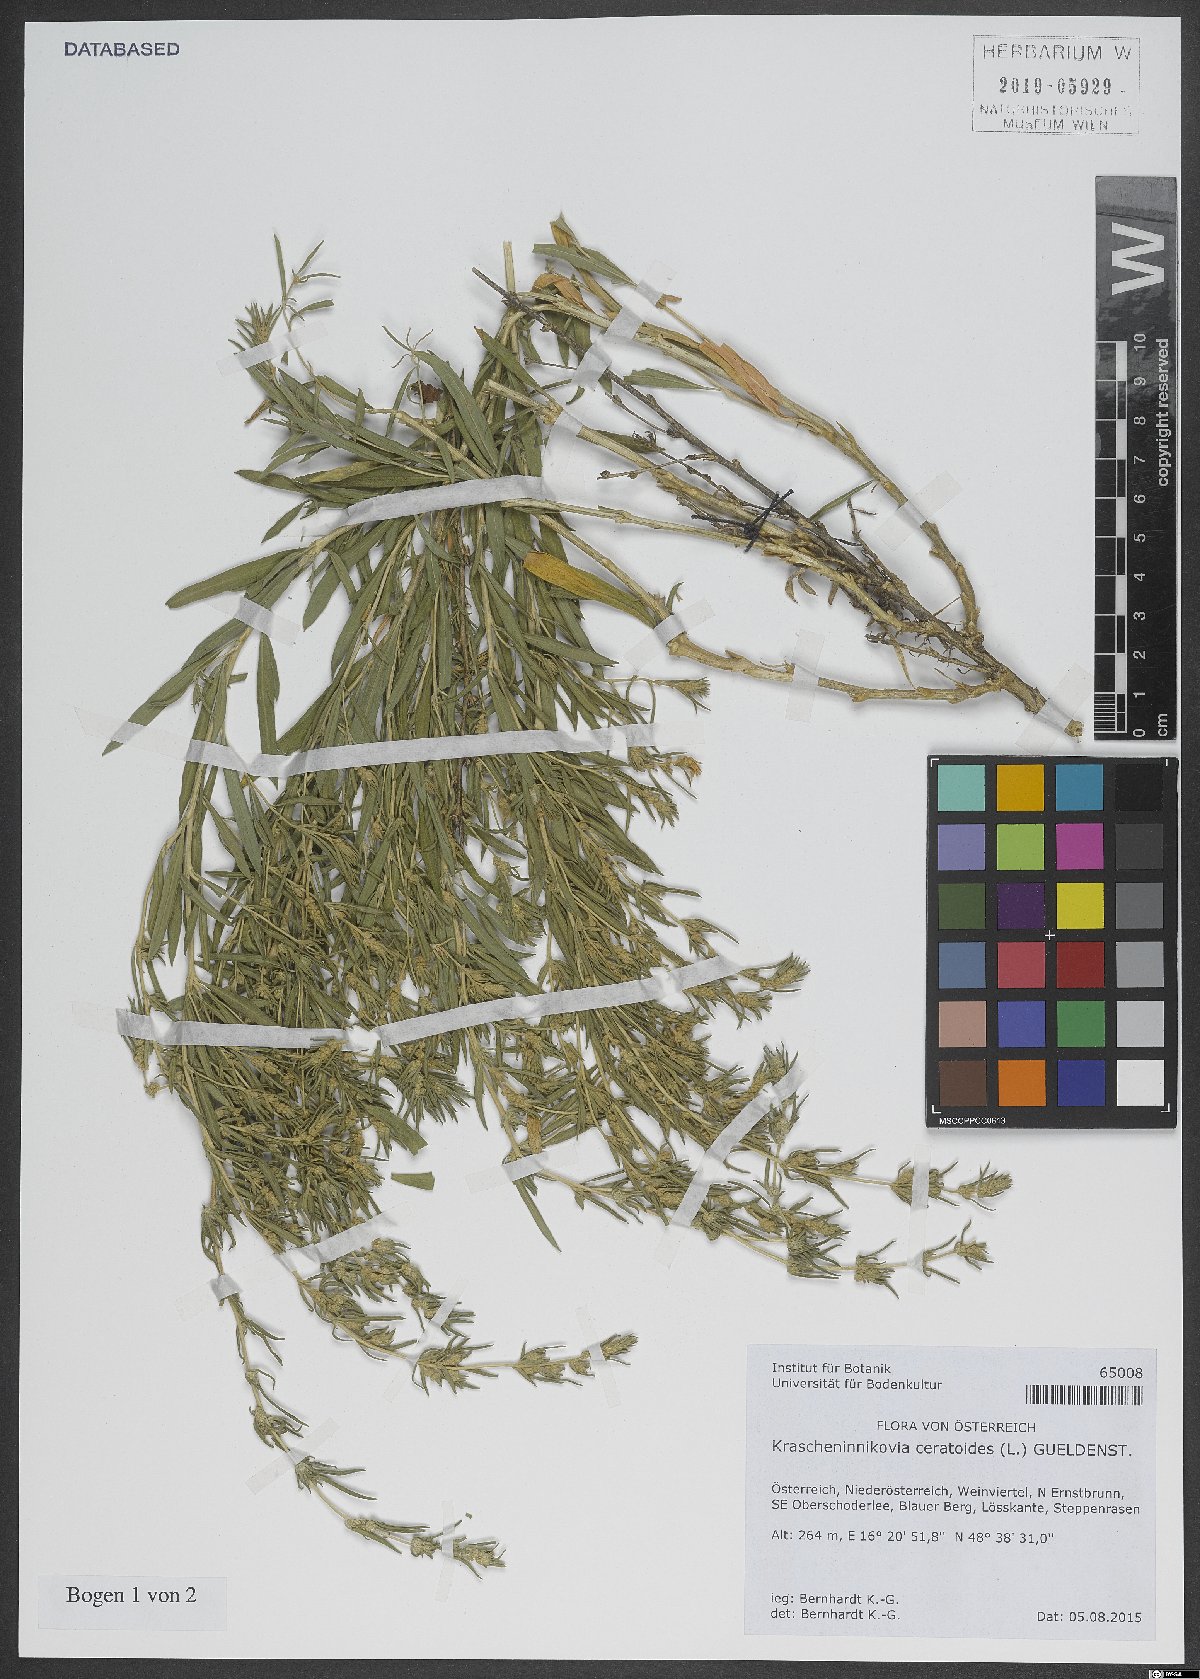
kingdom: Plantae
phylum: Tracheophyta
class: Magnoliopsida
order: Caryophyllales
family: Amaranthaceae
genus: Krascheninnikovia
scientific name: Krascheninnikovia ceratoides
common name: Pamirian winterfat
